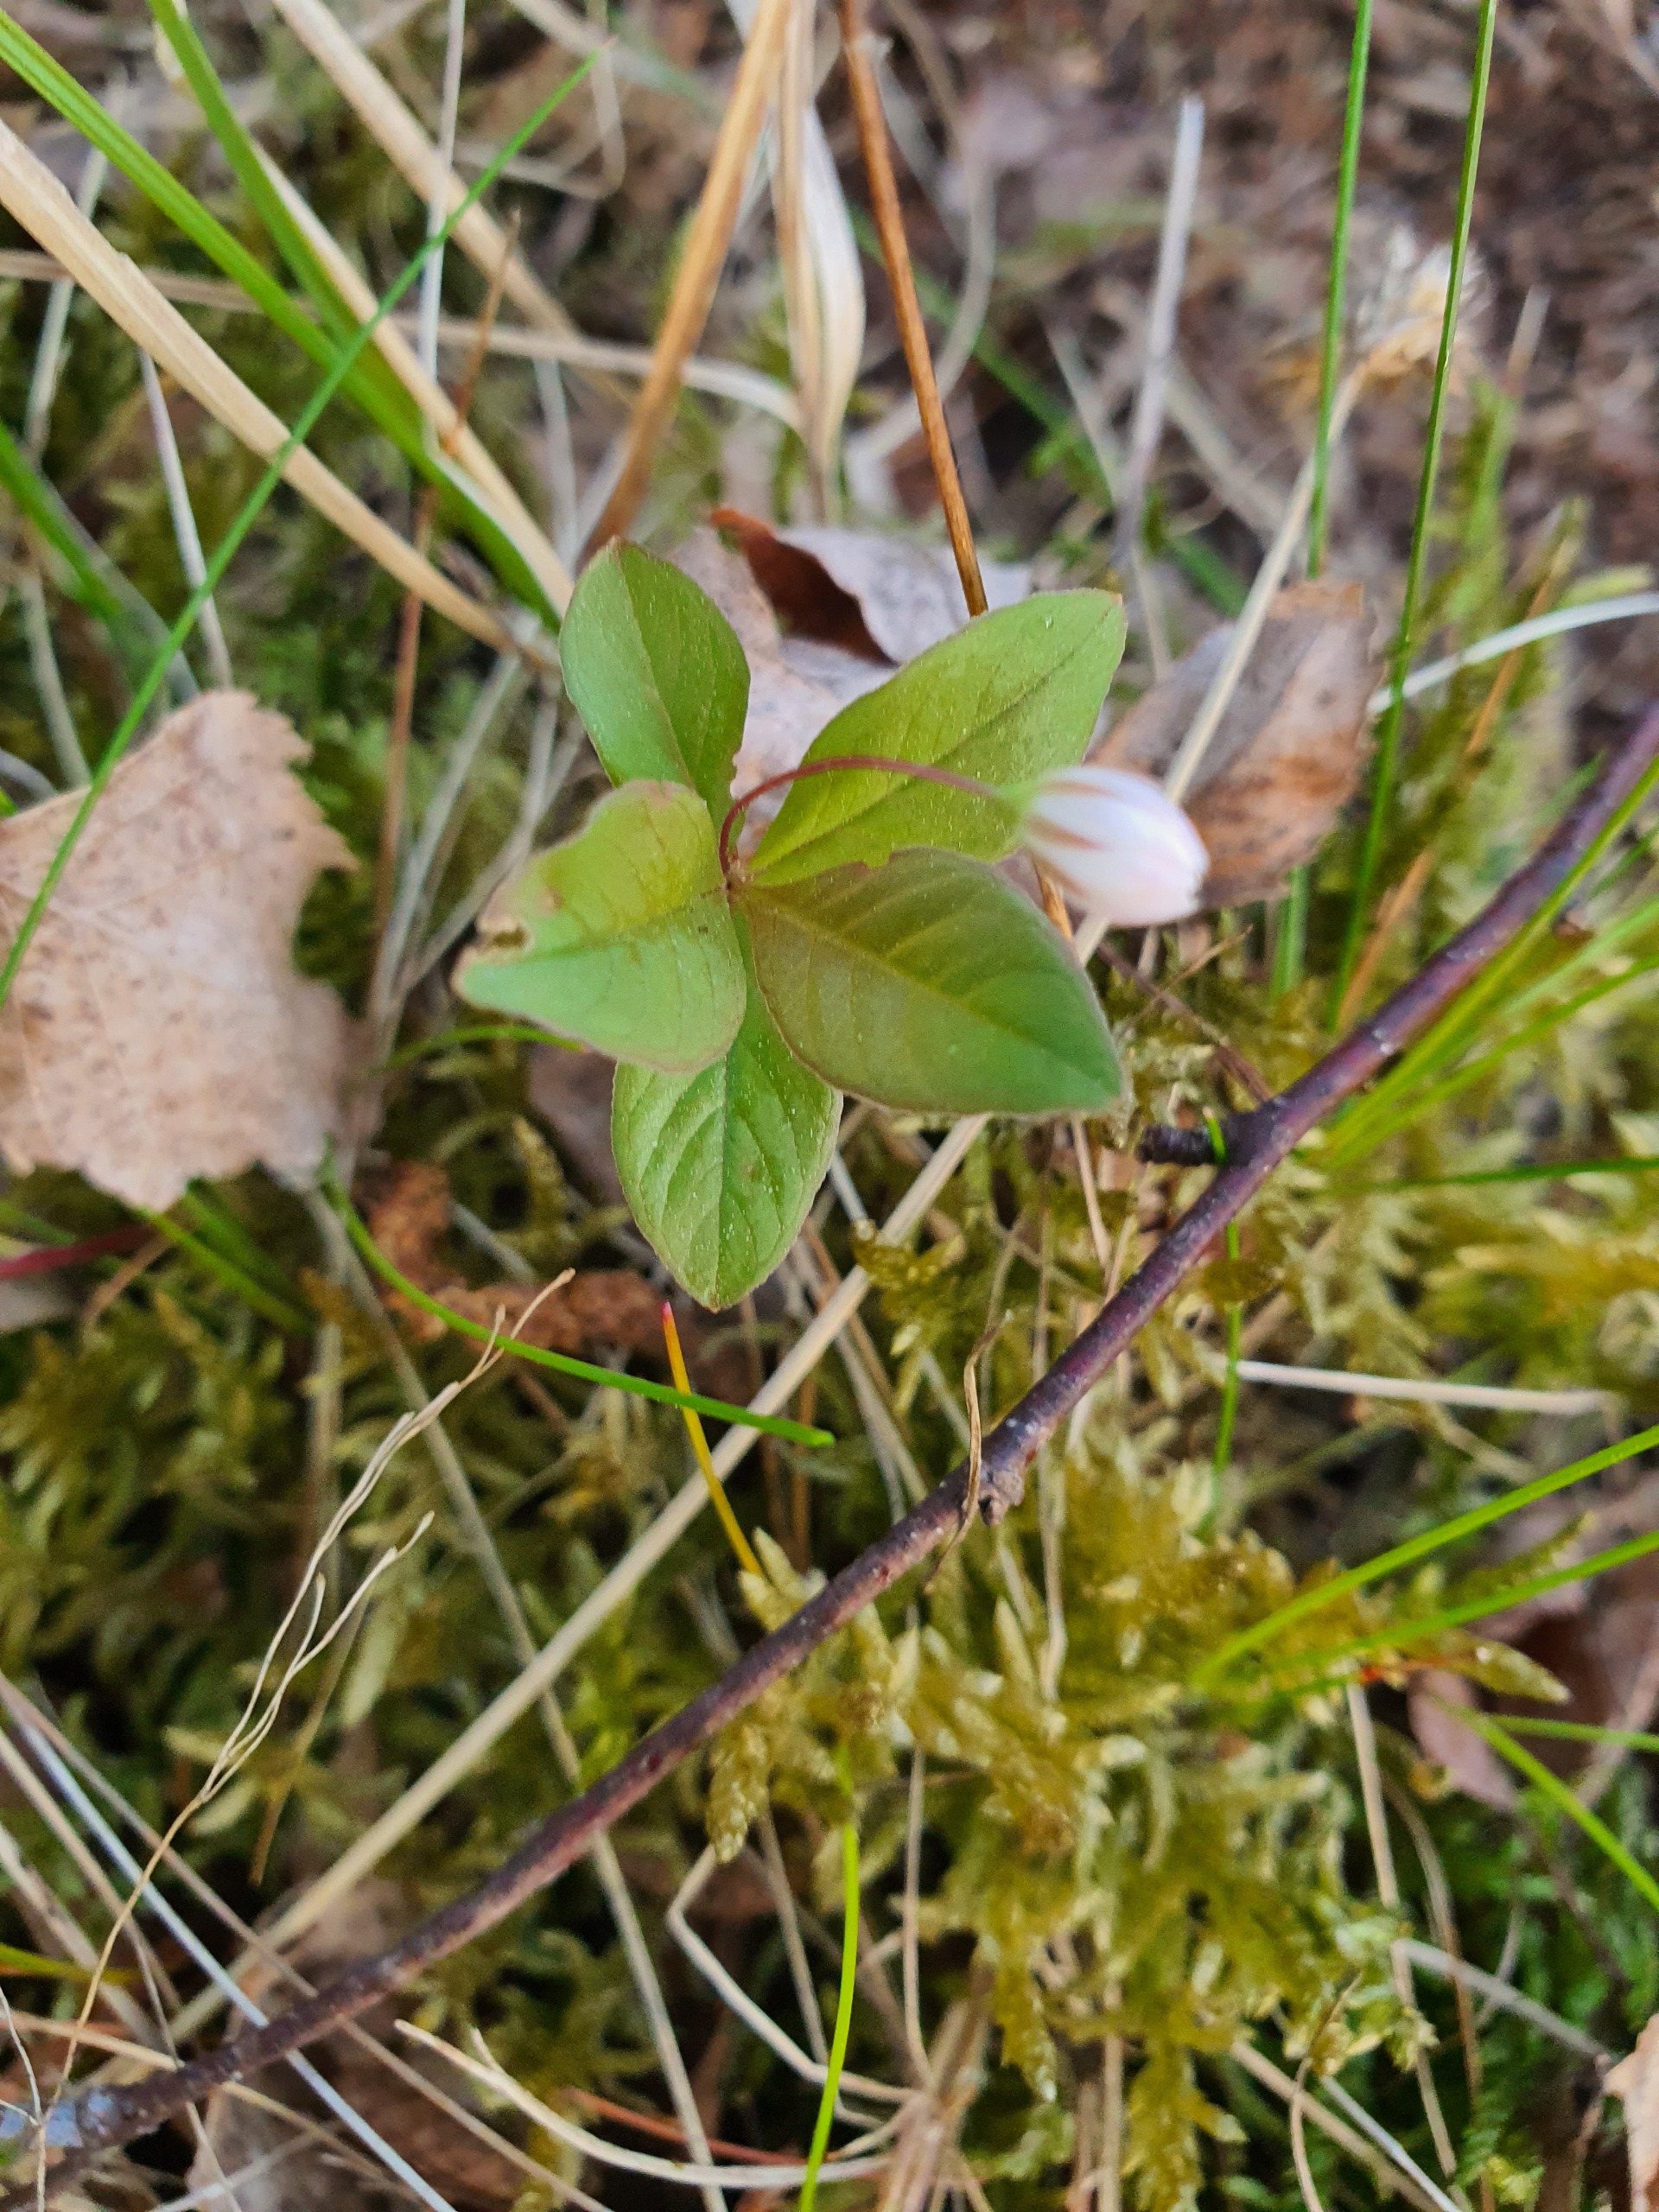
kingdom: Plantae
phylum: Tracheophyta
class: Magnoliopsida
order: Ericales
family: Primulaceae
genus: Lysimachia
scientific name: Lysimachia europaea
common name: Skovstjerne
